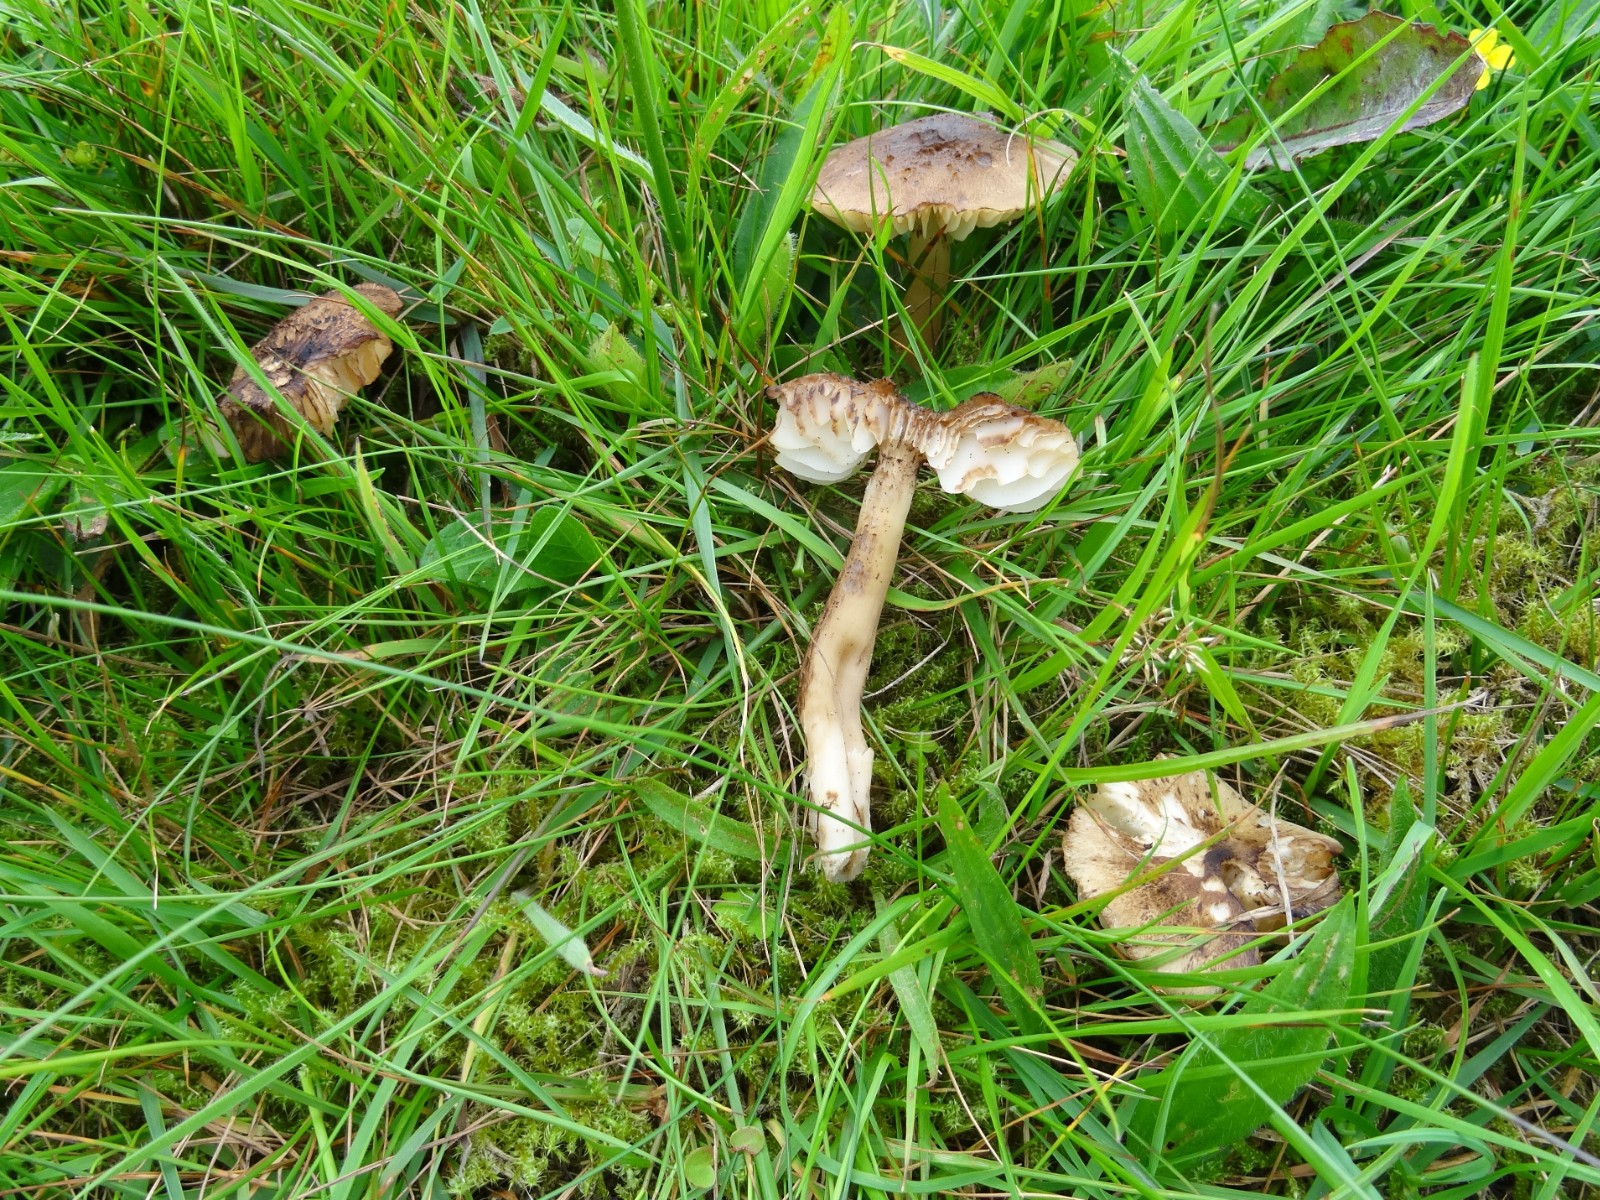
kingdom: Fungi
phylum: Basidiomycota
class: Agaricomycetes
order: Agaricales
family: Hygrophoraceae
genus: Hygrocybe
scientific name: Hygrocybe ingrata
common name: Jensens vokshat
